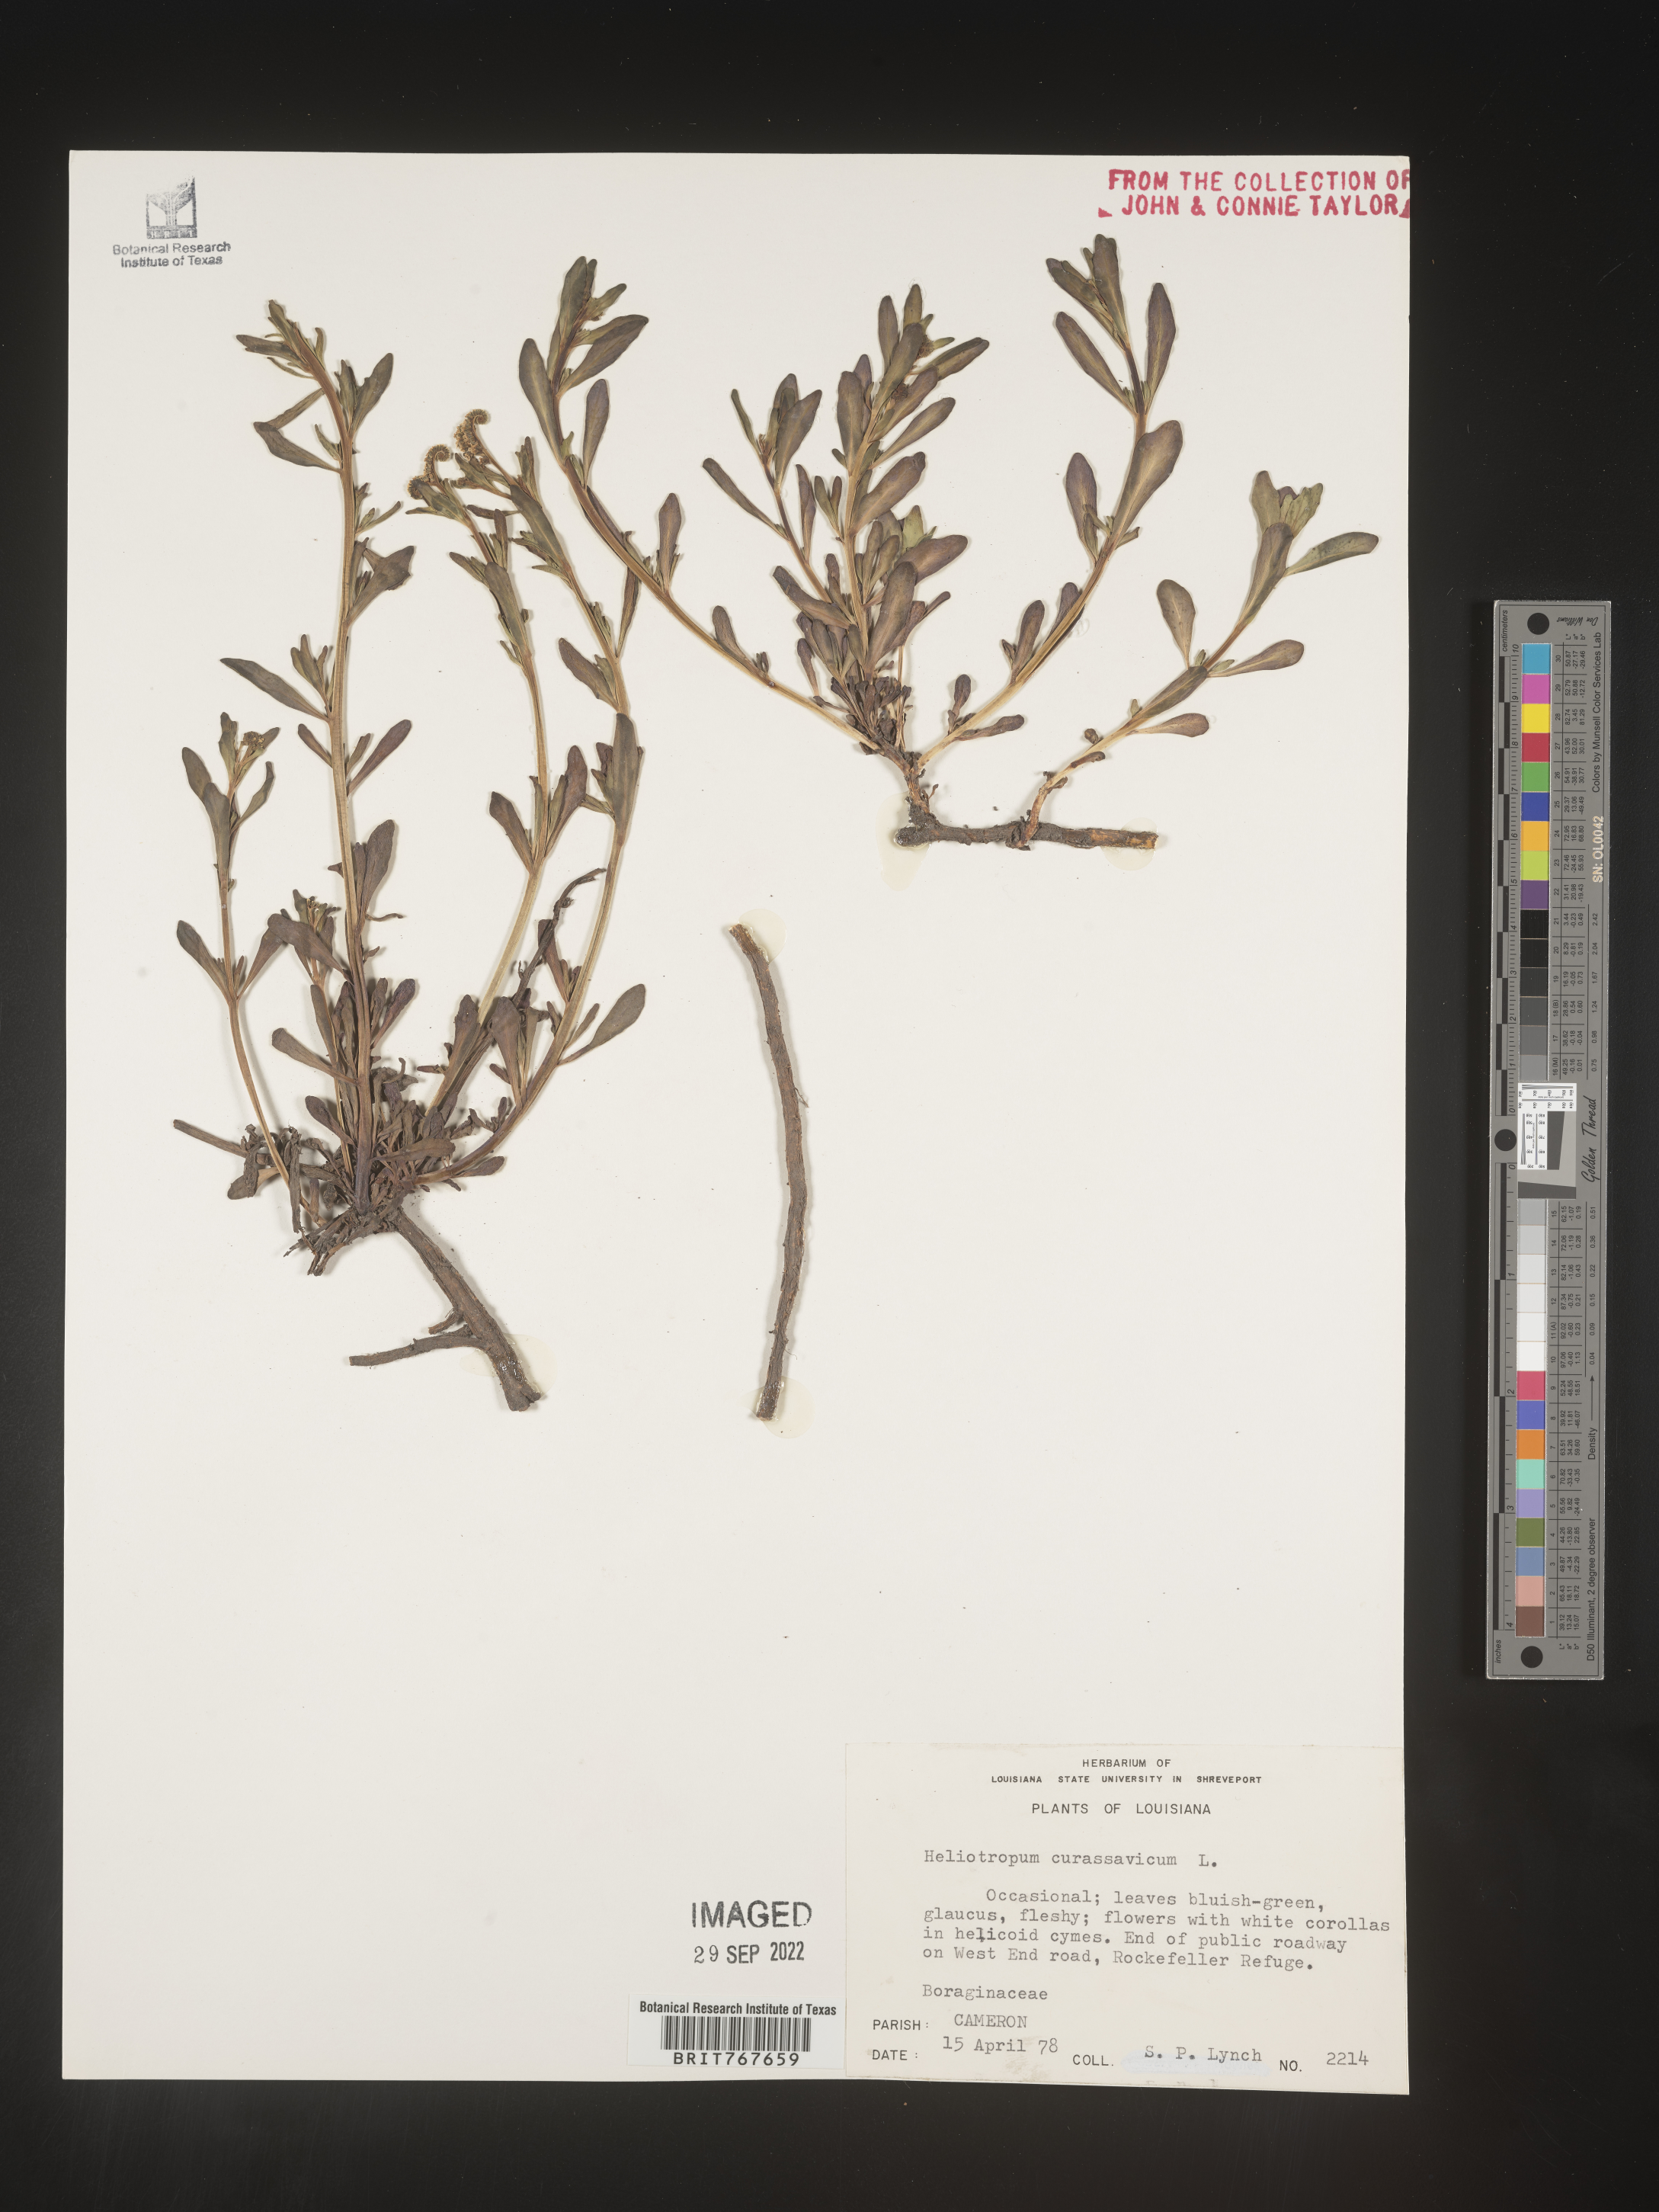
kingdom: Plantae
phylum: Tracheophyta
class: Magnoliopsida
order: Boraginales
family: Heliotropiaceae
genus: Heliotropium
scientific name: Heliotropium curassavicum
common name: Seaside heliotrope
